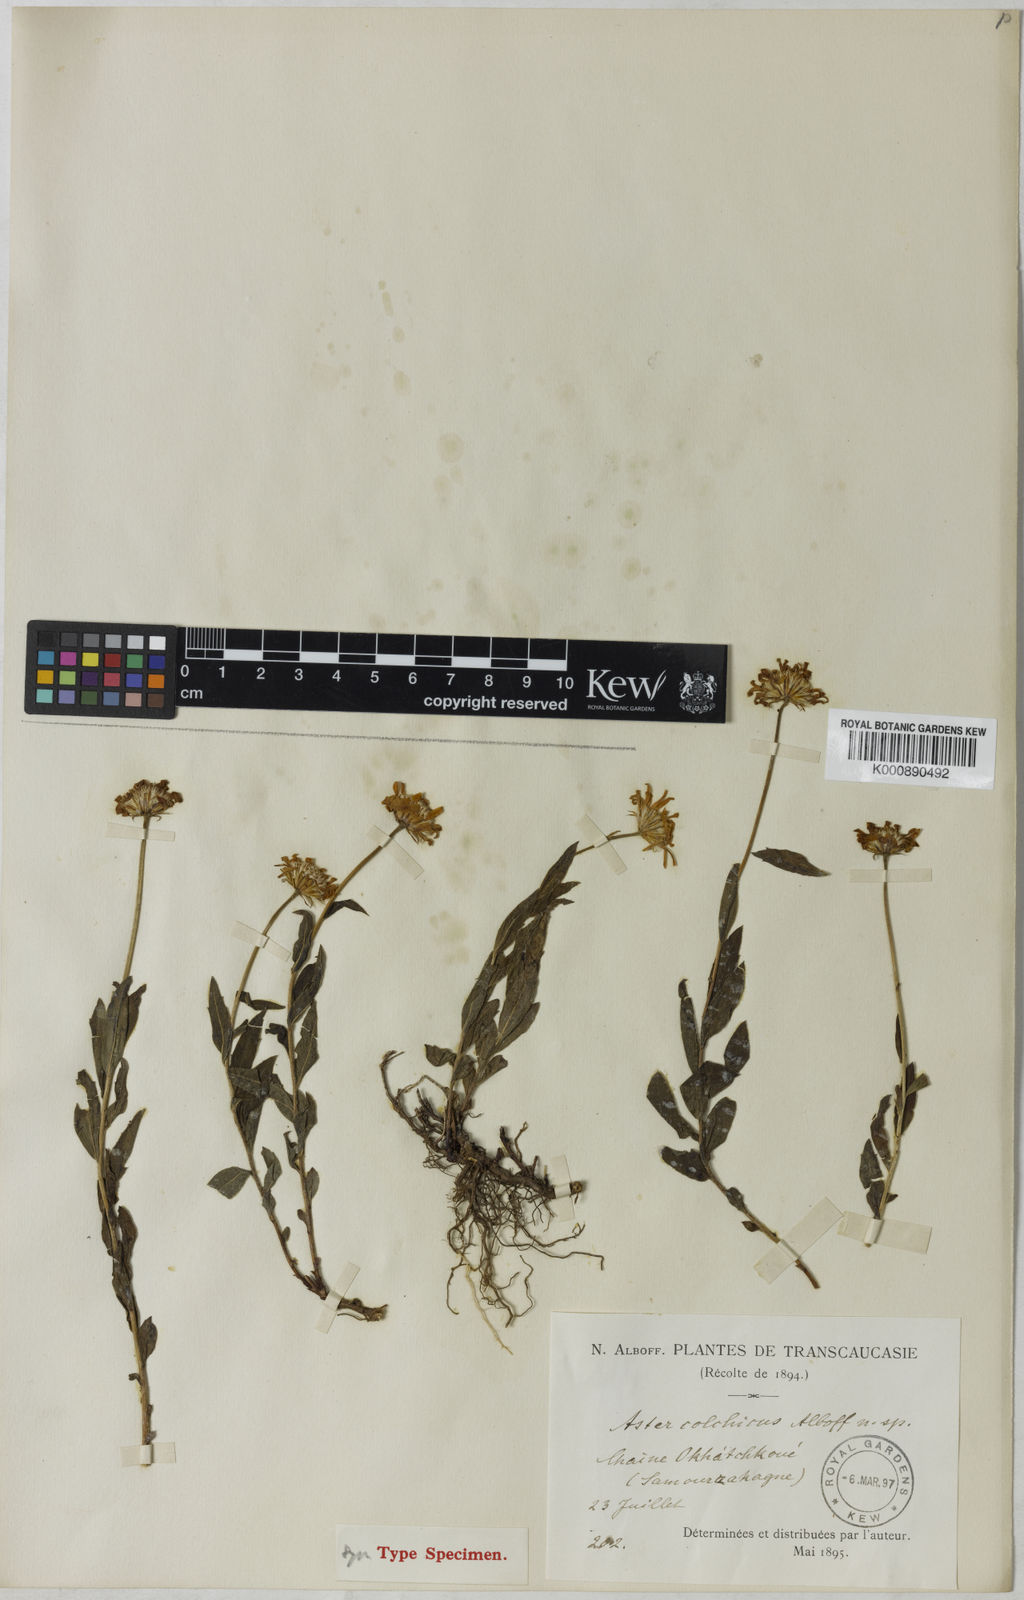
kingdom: Plantae
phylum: Tracheophyta
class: Magnoliopsida
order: Asterales
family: Asteraceae
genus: Kemulariella
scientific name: Kemulariella colchica
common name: Colchic kemulariella
